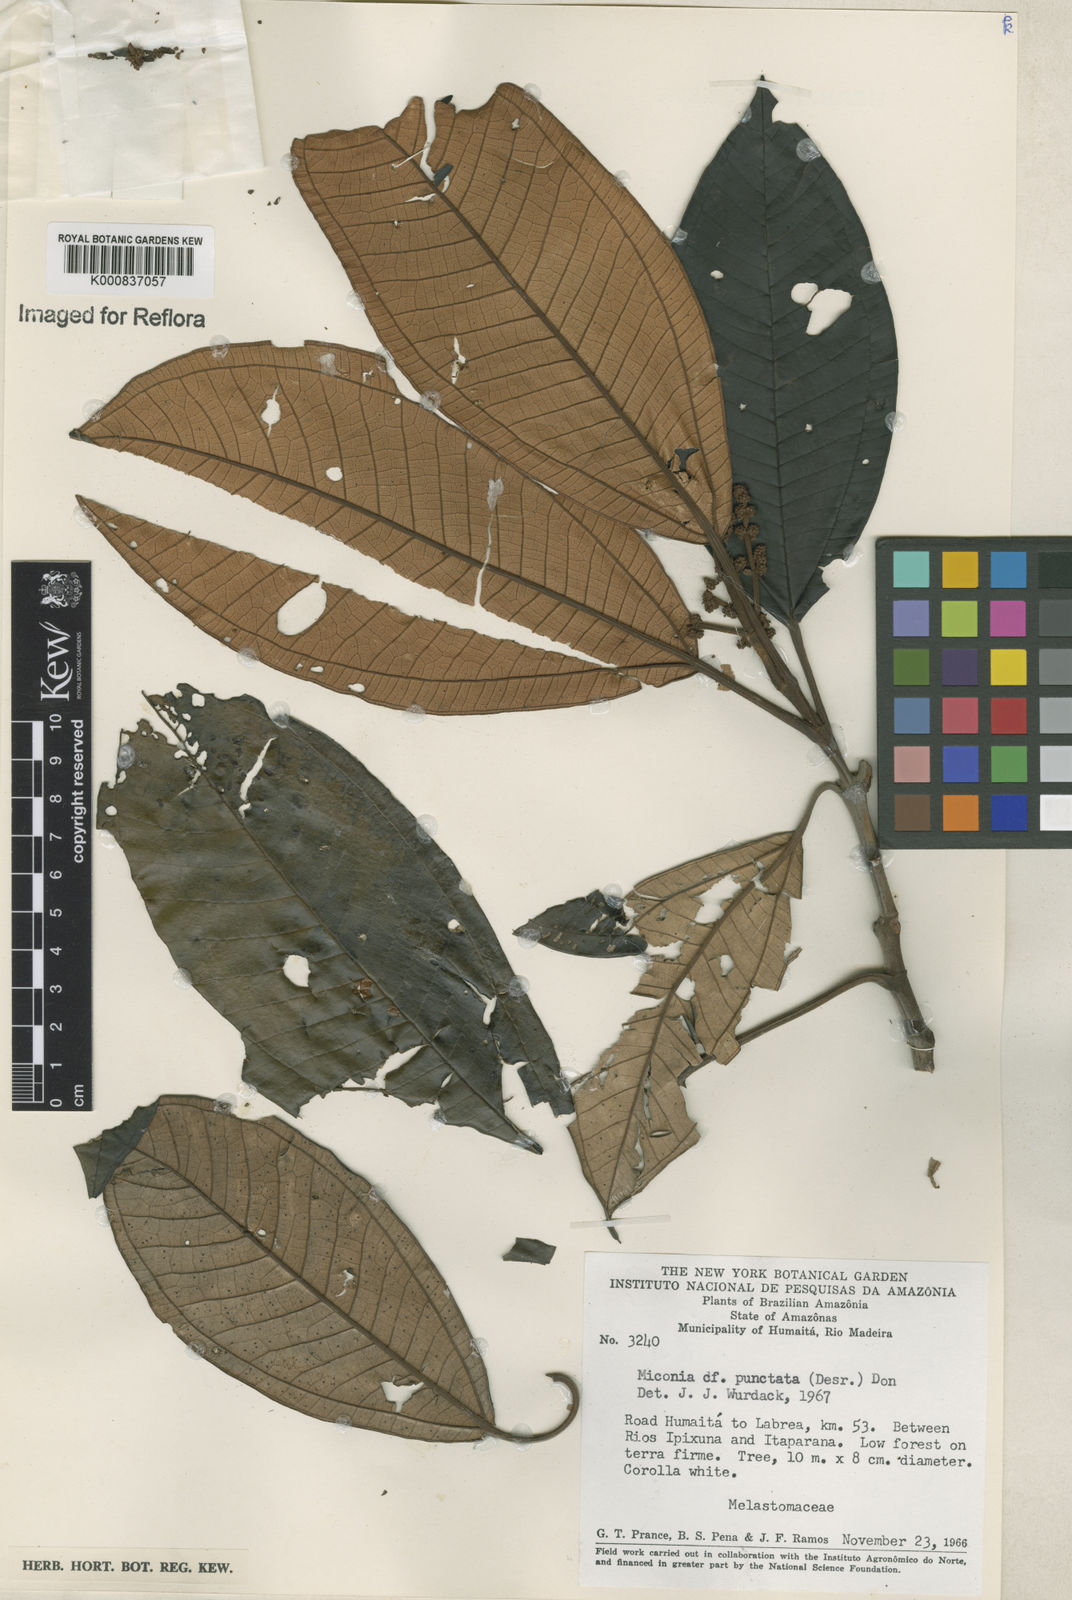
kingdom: Plantae
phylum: Tracheophyta
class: Magnoliopsida
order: Myrtales
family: Melastomataceae
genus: Miconia
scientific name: Miconia punctata
